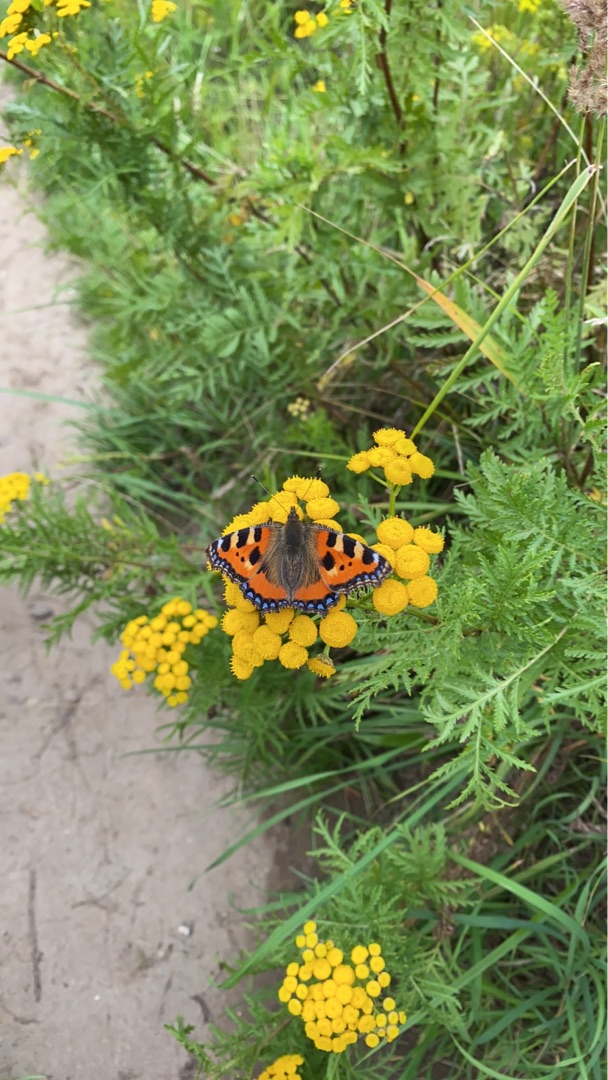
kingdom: Animalia
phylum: Arthropoda
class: Insecta
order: Lepidoptera
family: Nymphalidae
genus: Aglais
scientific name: Aglais urticae
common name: Nældens takvinge
